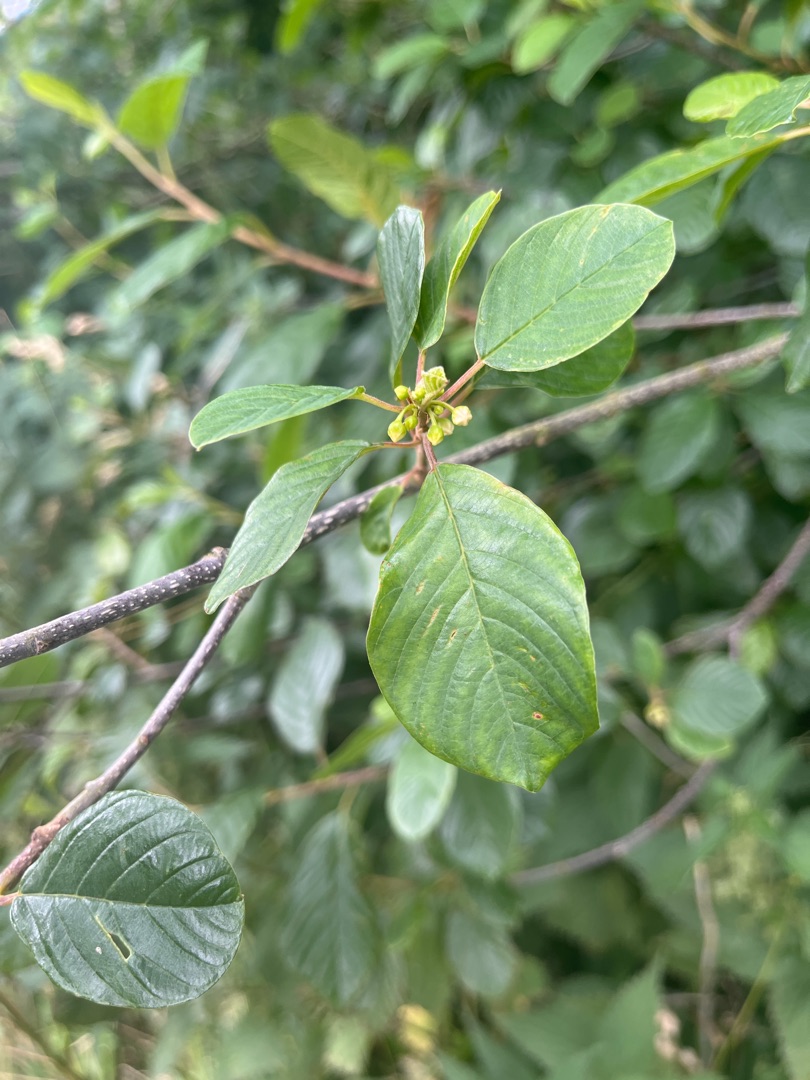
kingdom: Plantae
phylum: Tracheophyta
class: Magnoliopsida
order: Rosales
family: Rhamnaceae
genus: Frangula
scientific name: Frangula alnus
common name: Tørst
